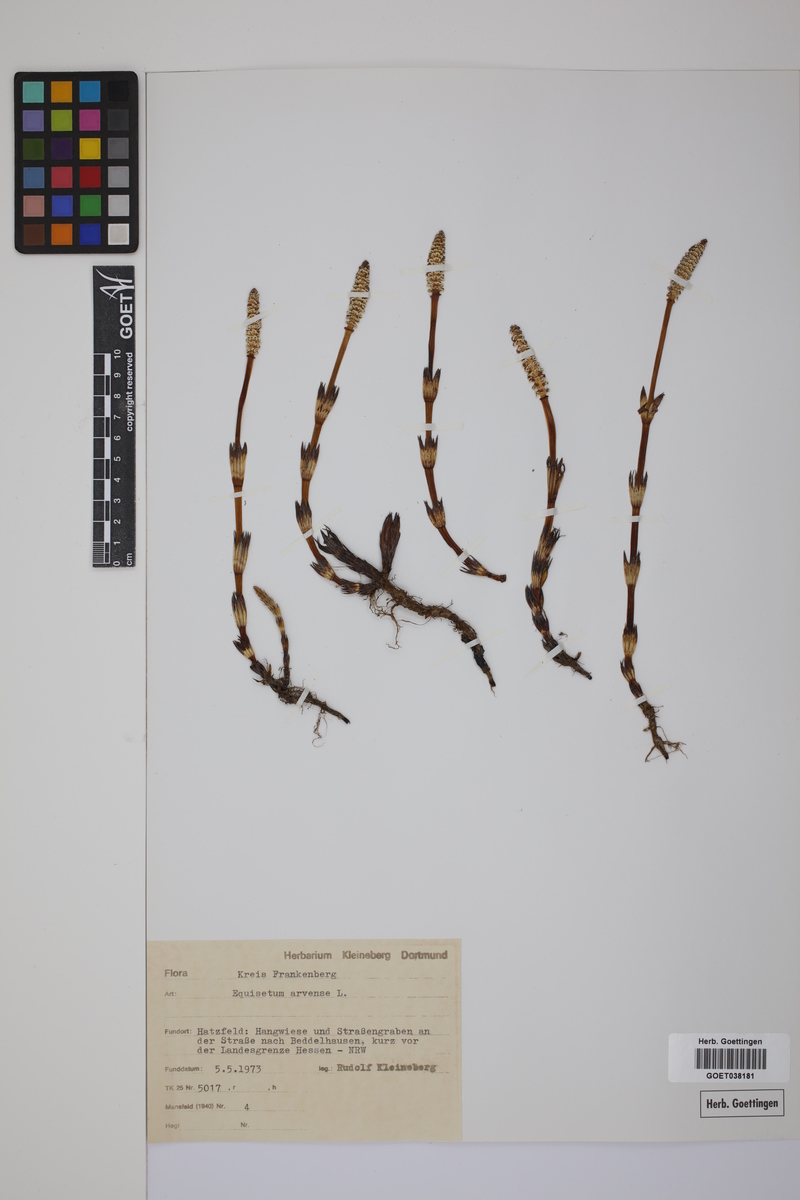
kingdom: Plantae
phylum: Tracheophyta
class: Polypodiopsida
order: Equisetales
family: Equisetaceae
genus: Equisetum
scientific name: Equisetum arvense
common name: Field horsetail
